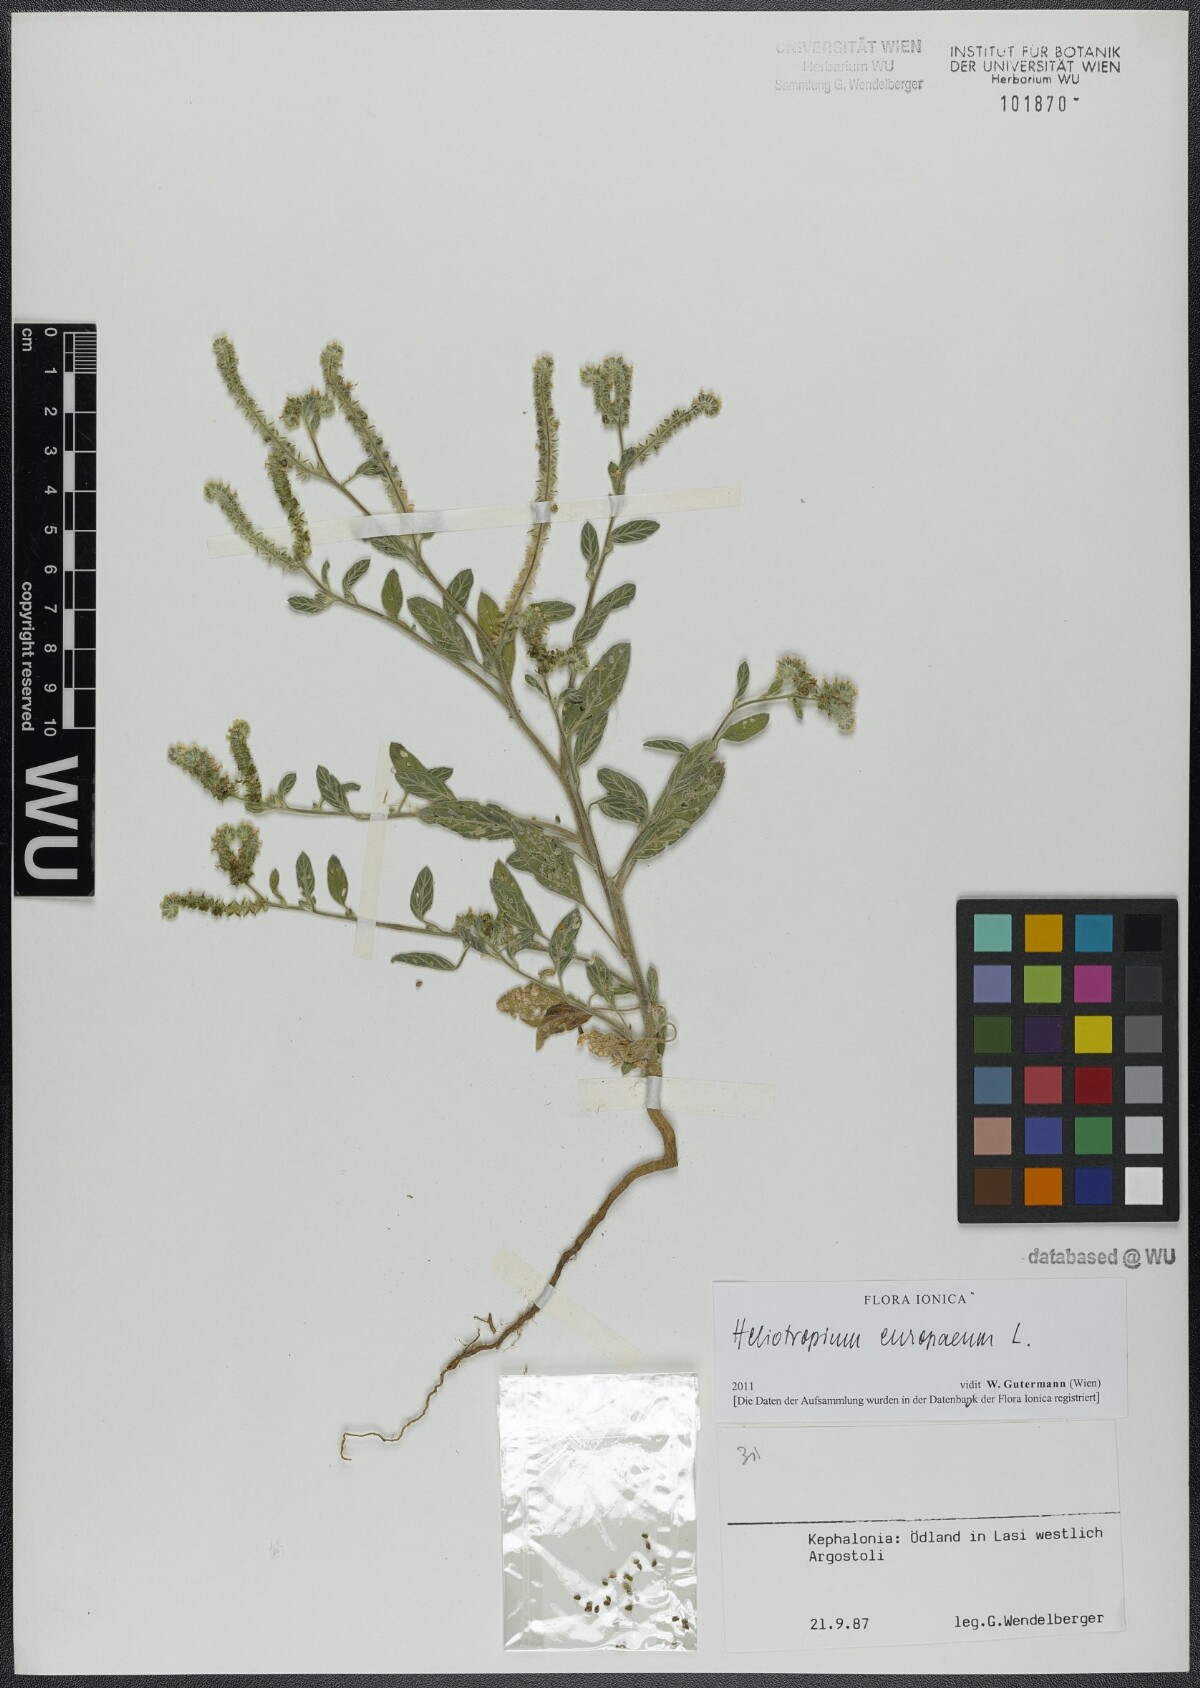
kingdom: Plantae
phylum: Tracheophyta
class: Magnoliopsida
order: Boraginales
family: Heliotropiaceae
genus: Heliotropium
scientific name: Heliotropium europaeum
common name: European heliotrope
